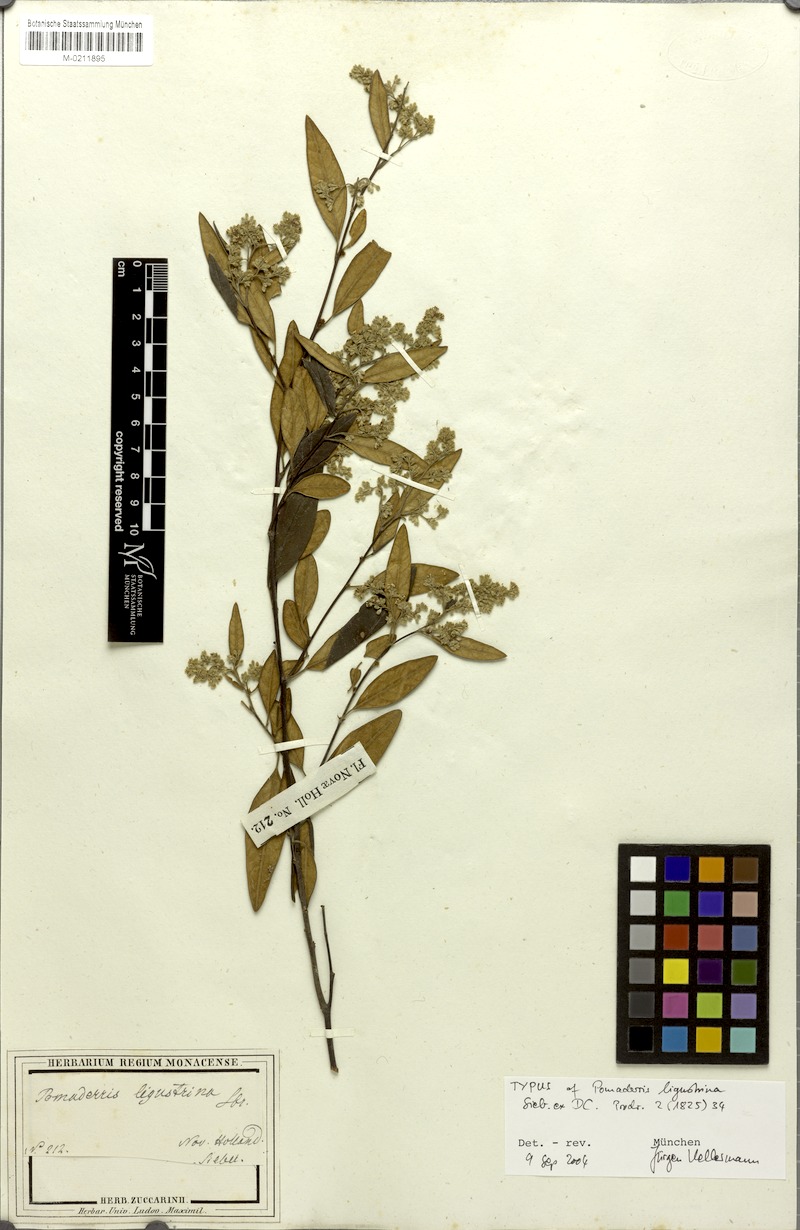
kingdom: Plantae
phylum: Tracheophyta
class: Magnoliopsida
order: Rosales
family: Rhamnaceae
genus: Pomaderris
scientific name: Pomaderris ligustrina
